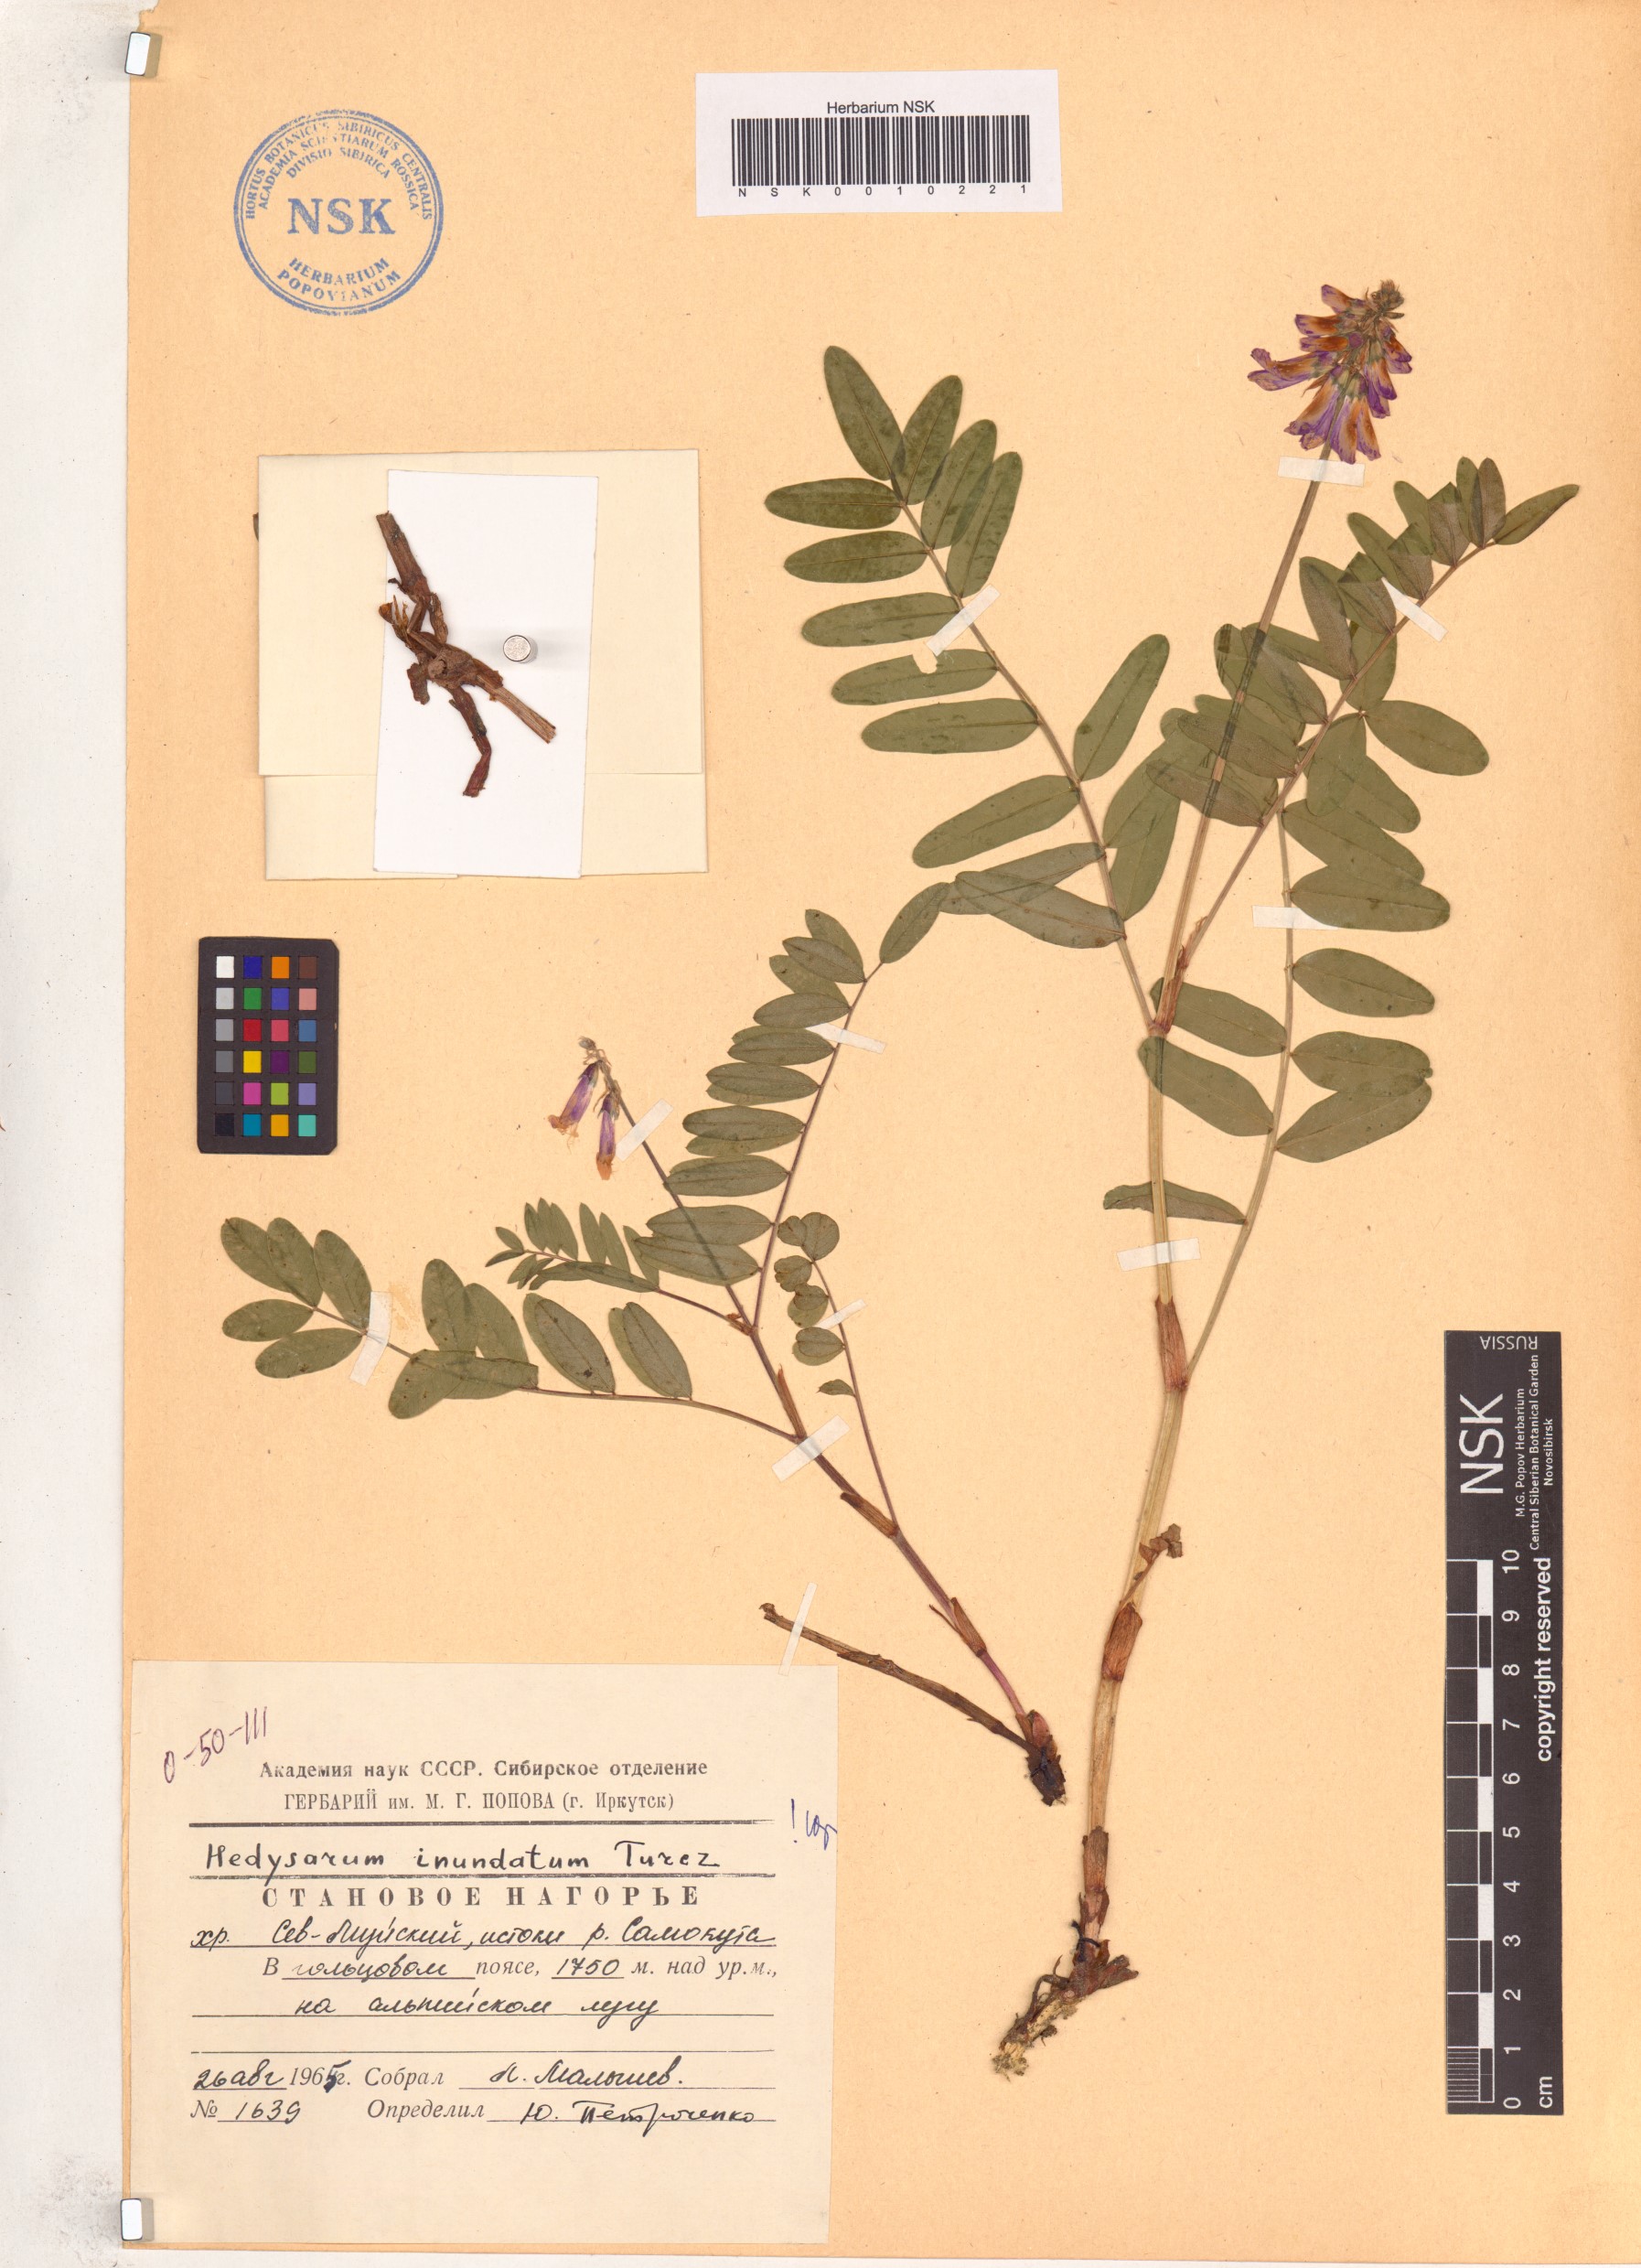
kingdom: Plantae
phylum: Tracheophyta
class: Magnoliopsida
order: Fabales
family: Fabaceae
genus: Hedysarum
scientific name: Hedysarum inundatum
